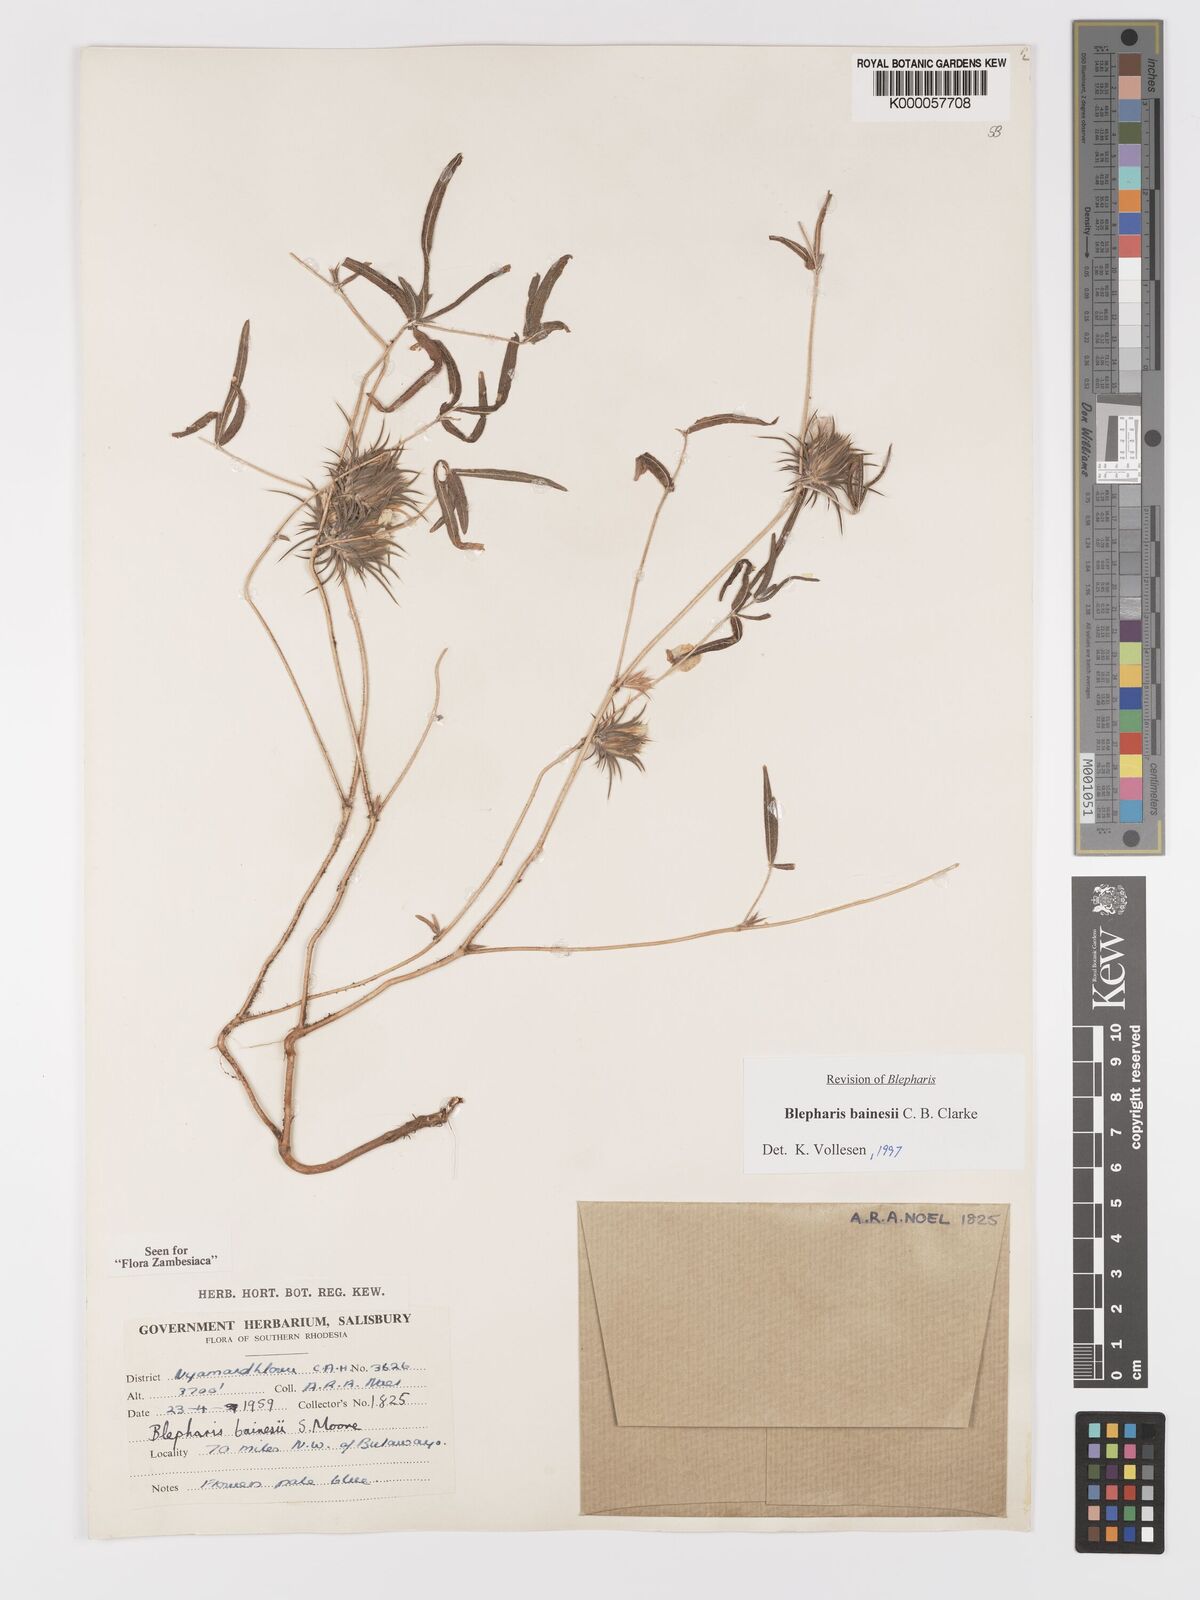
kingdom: Plantae
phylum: Tracheophyta
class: Magnoliopsida
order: Lamiales
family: Acanthaceae
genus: Blepharis
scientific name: Blepharis bainesii
